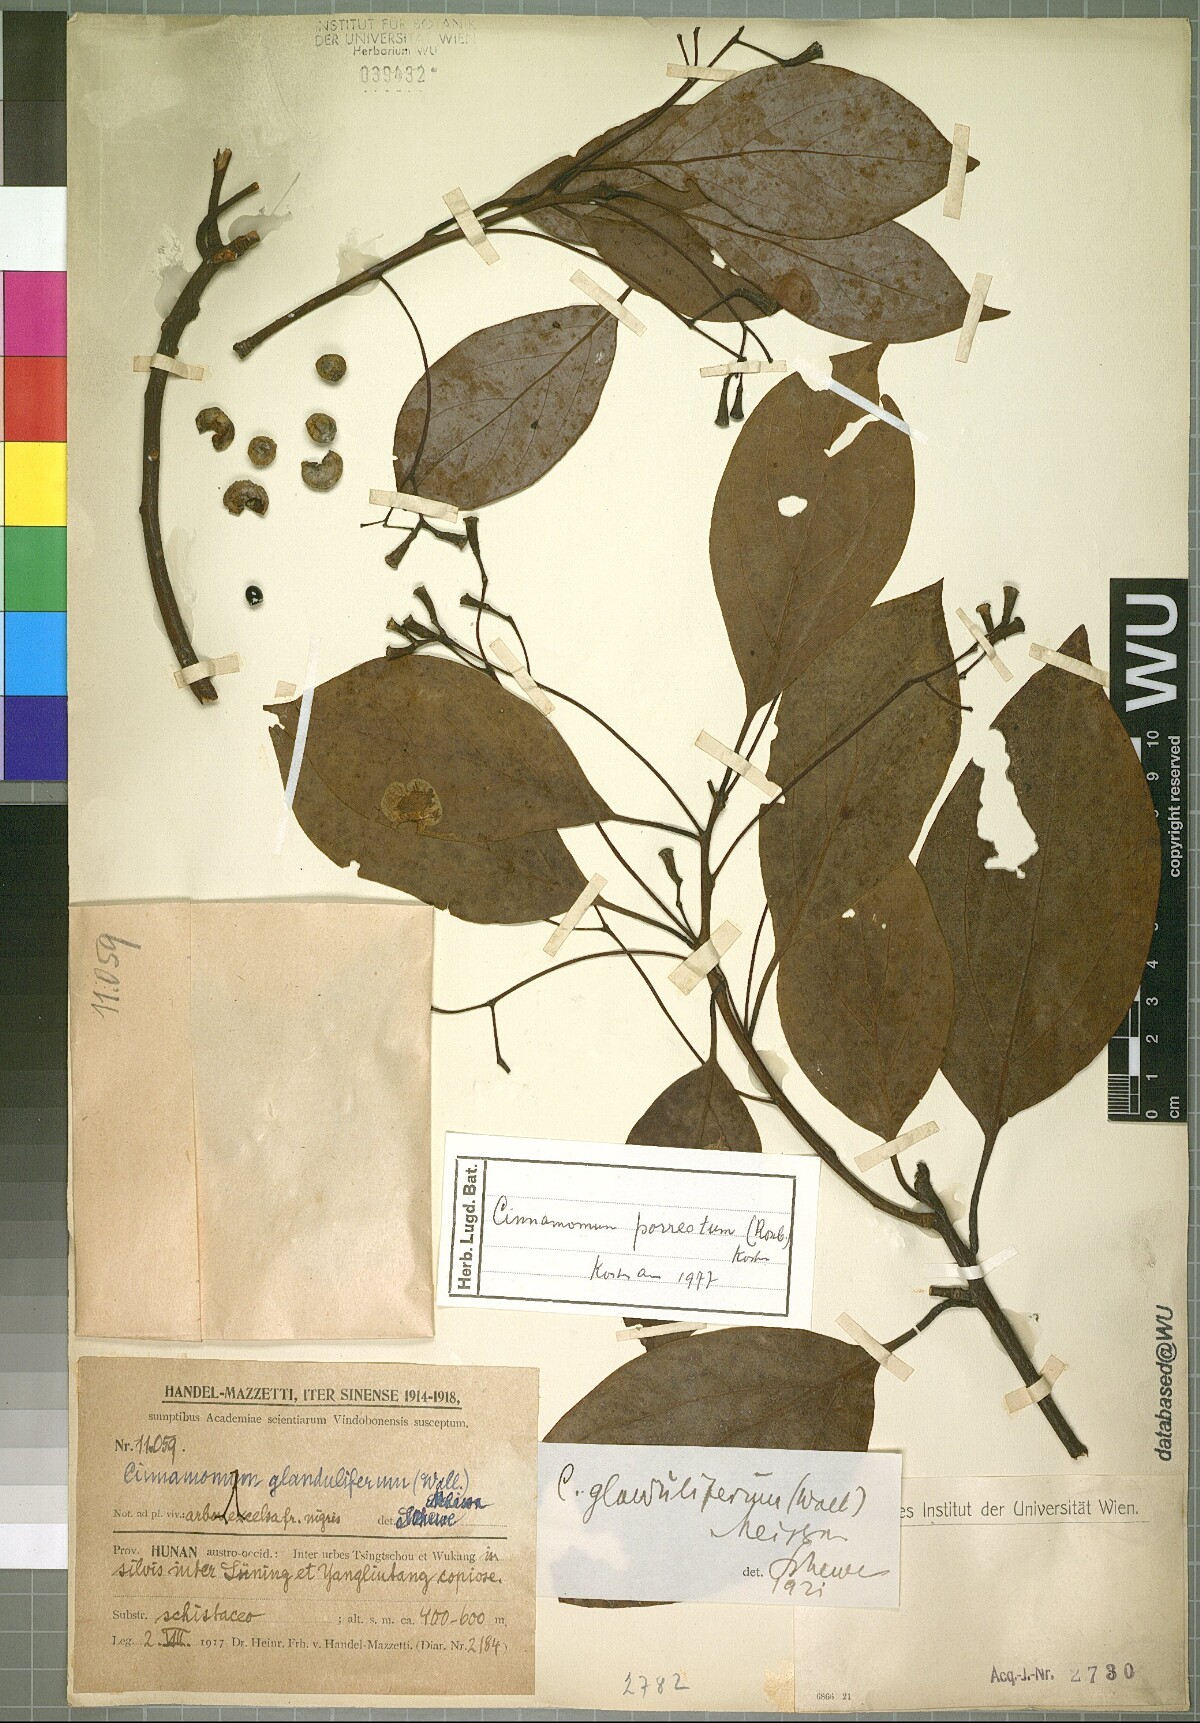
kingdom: Plantae
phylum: Tracheophyta
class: Magnoliopsida
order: Laurales
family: Lauraceae
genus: Cinnamomum
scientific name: Cinnamomum parthenoxylon
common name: Martaban camphor wood
